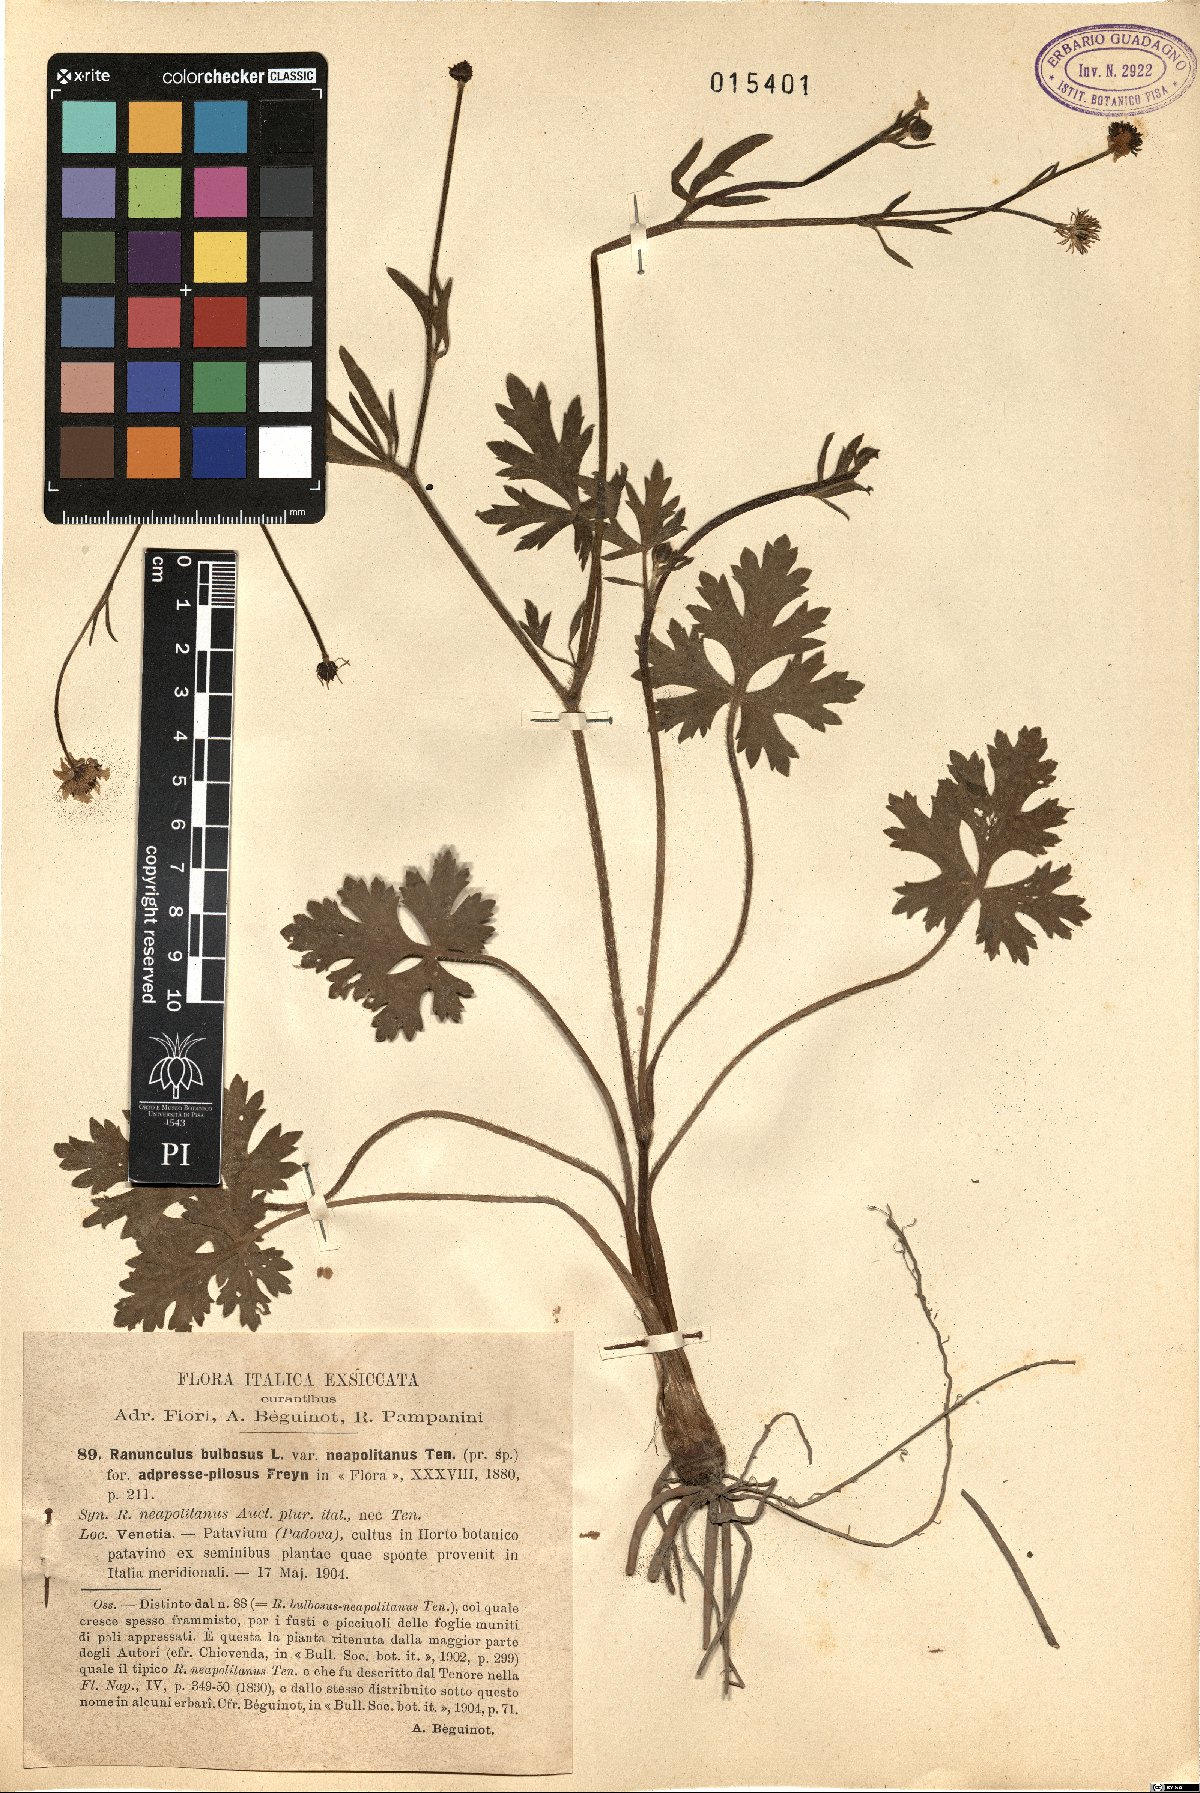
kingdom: Plantae
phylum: Tracheophyta
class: Magnoliopsida
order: Ranunculales
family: Ranunculaceae
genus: Ranunculus
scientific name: Ranunculus bulbosus
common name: Bulbous buttercup
